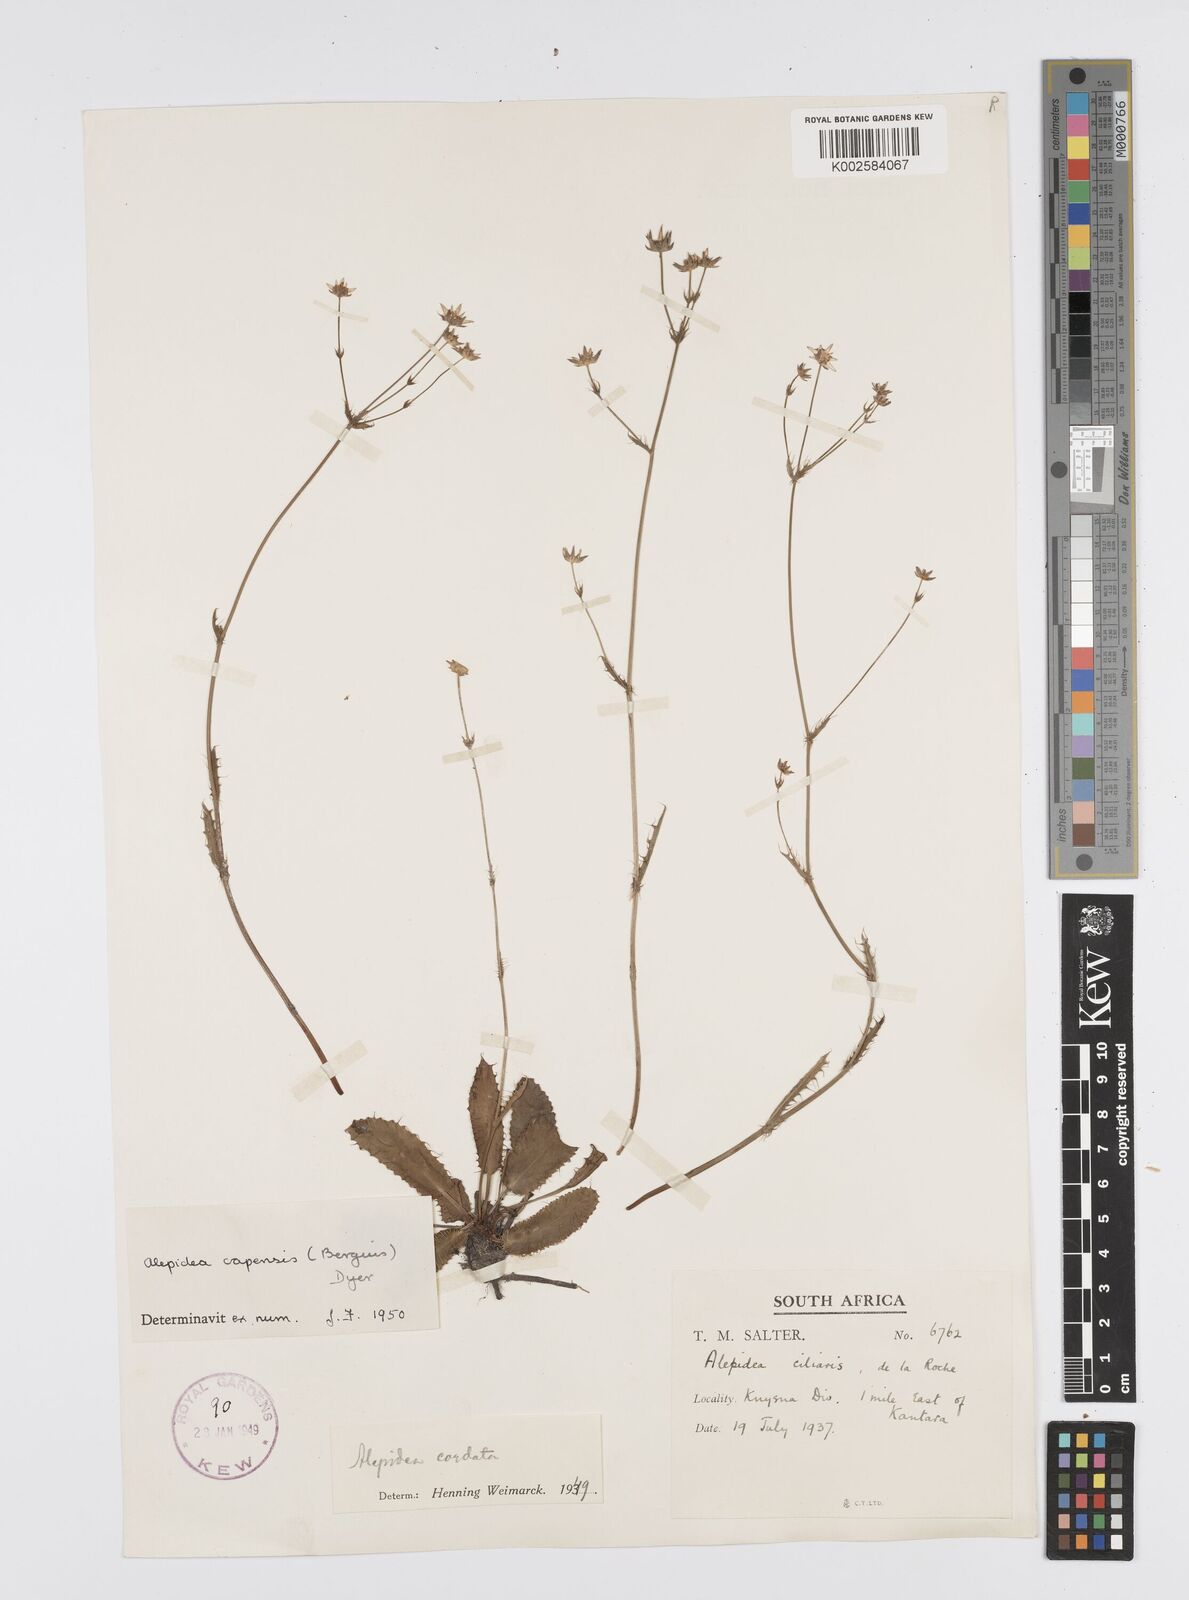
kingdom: Plantae
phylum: Tracheophyta
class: Magnoliopsida
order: Apiales
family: Apiaceae
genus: Alepidea
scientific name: Alepidea capensis
